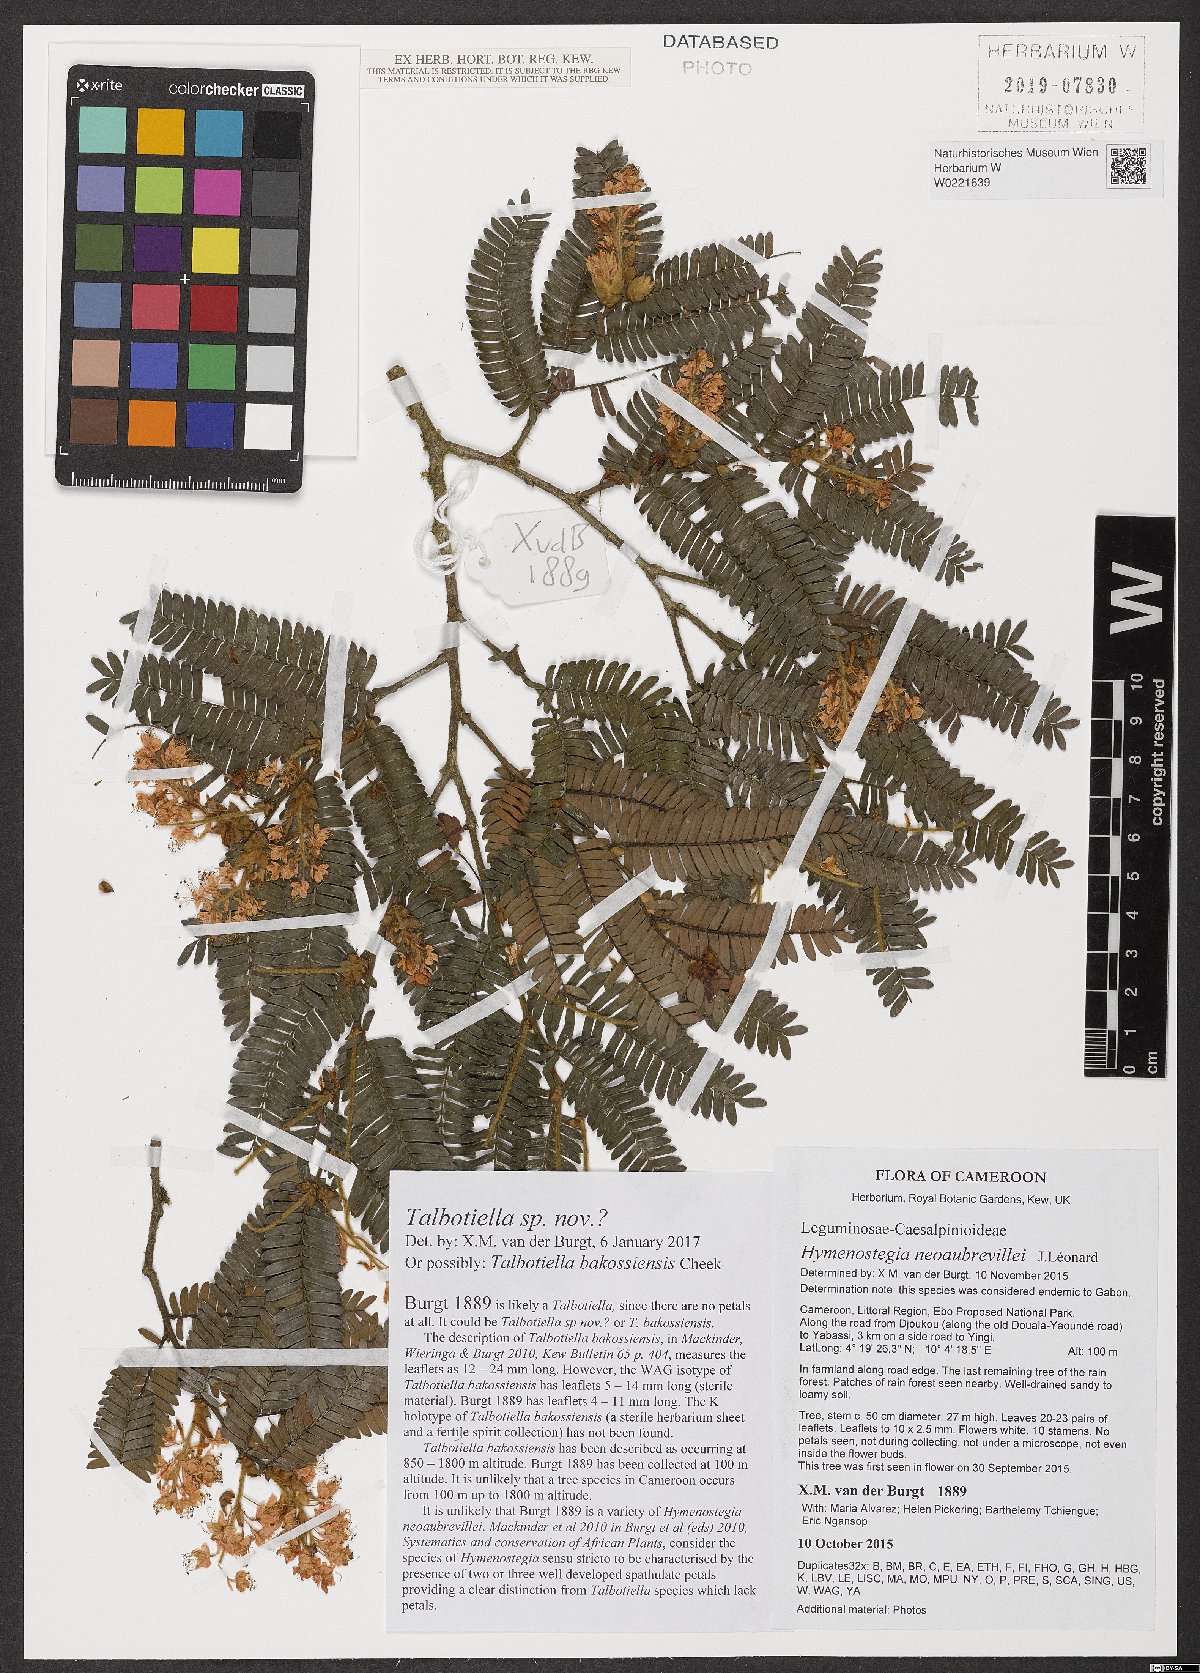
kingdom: Plantae
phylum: Tracheophyta
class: Magnoliopsida
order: Fabales
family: Fabaceae
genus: Talbotiella
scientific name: Talbotiella
